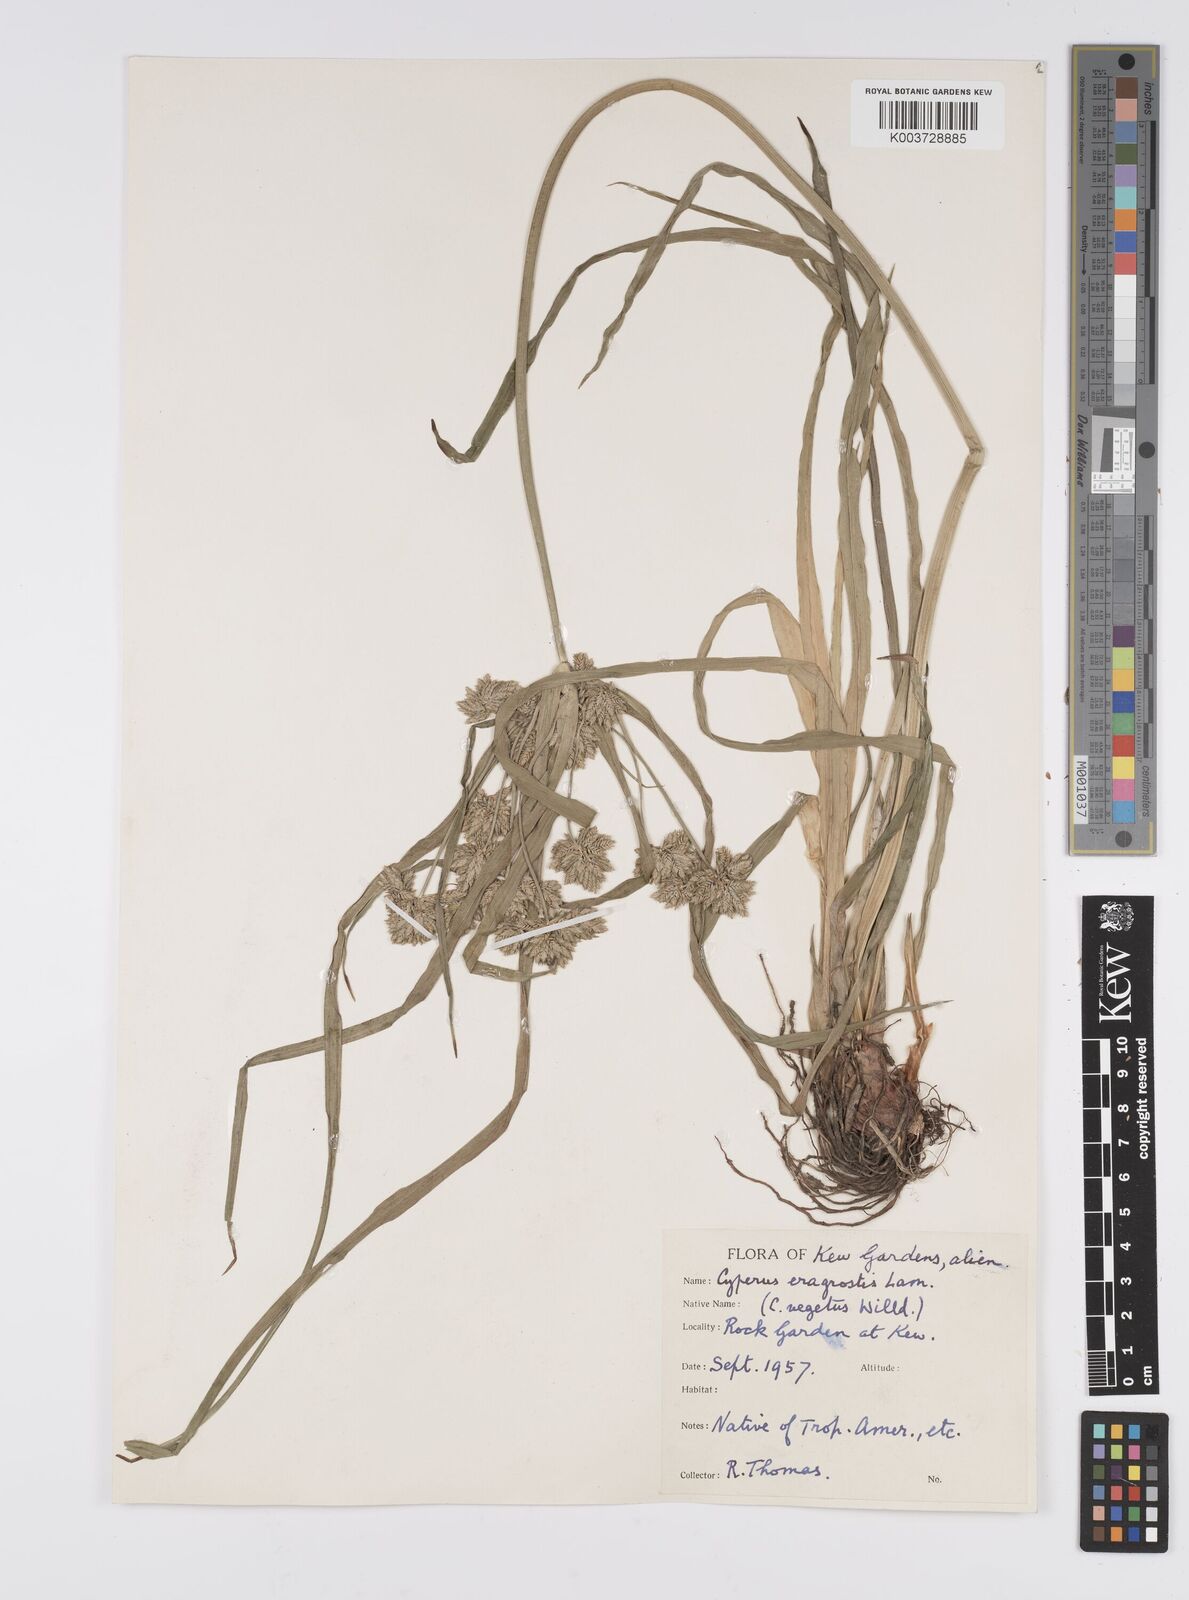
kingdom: Plantae
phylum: Tracheophyta
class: Liliopsida
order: Poales
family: Cyperaceae
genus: Cyperus
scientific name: Cyperus eragrostis
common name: Tall flatsedge
